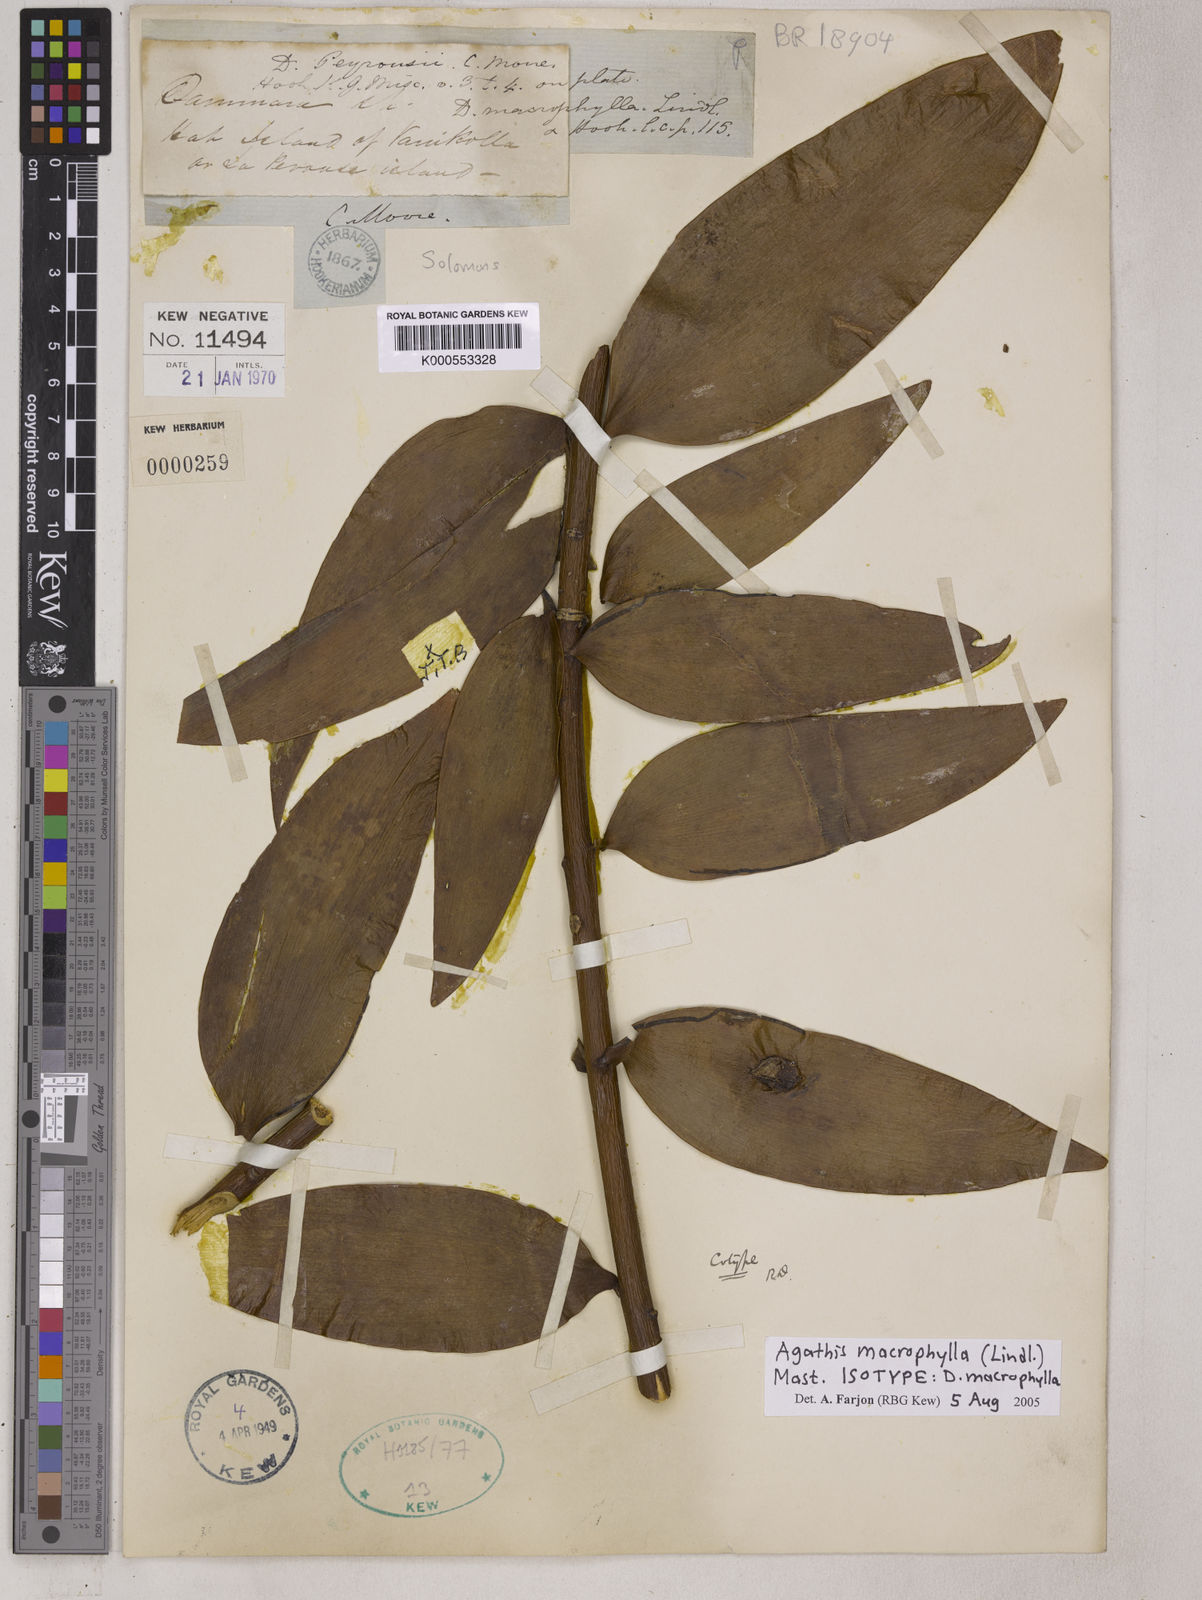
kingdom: Plantae
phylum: Tracheophyta
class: Pinopsida
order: Pinales
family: Araucariaceae
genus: Agathis
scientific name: Agathis macrophylla
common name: Fijian kauri pine
